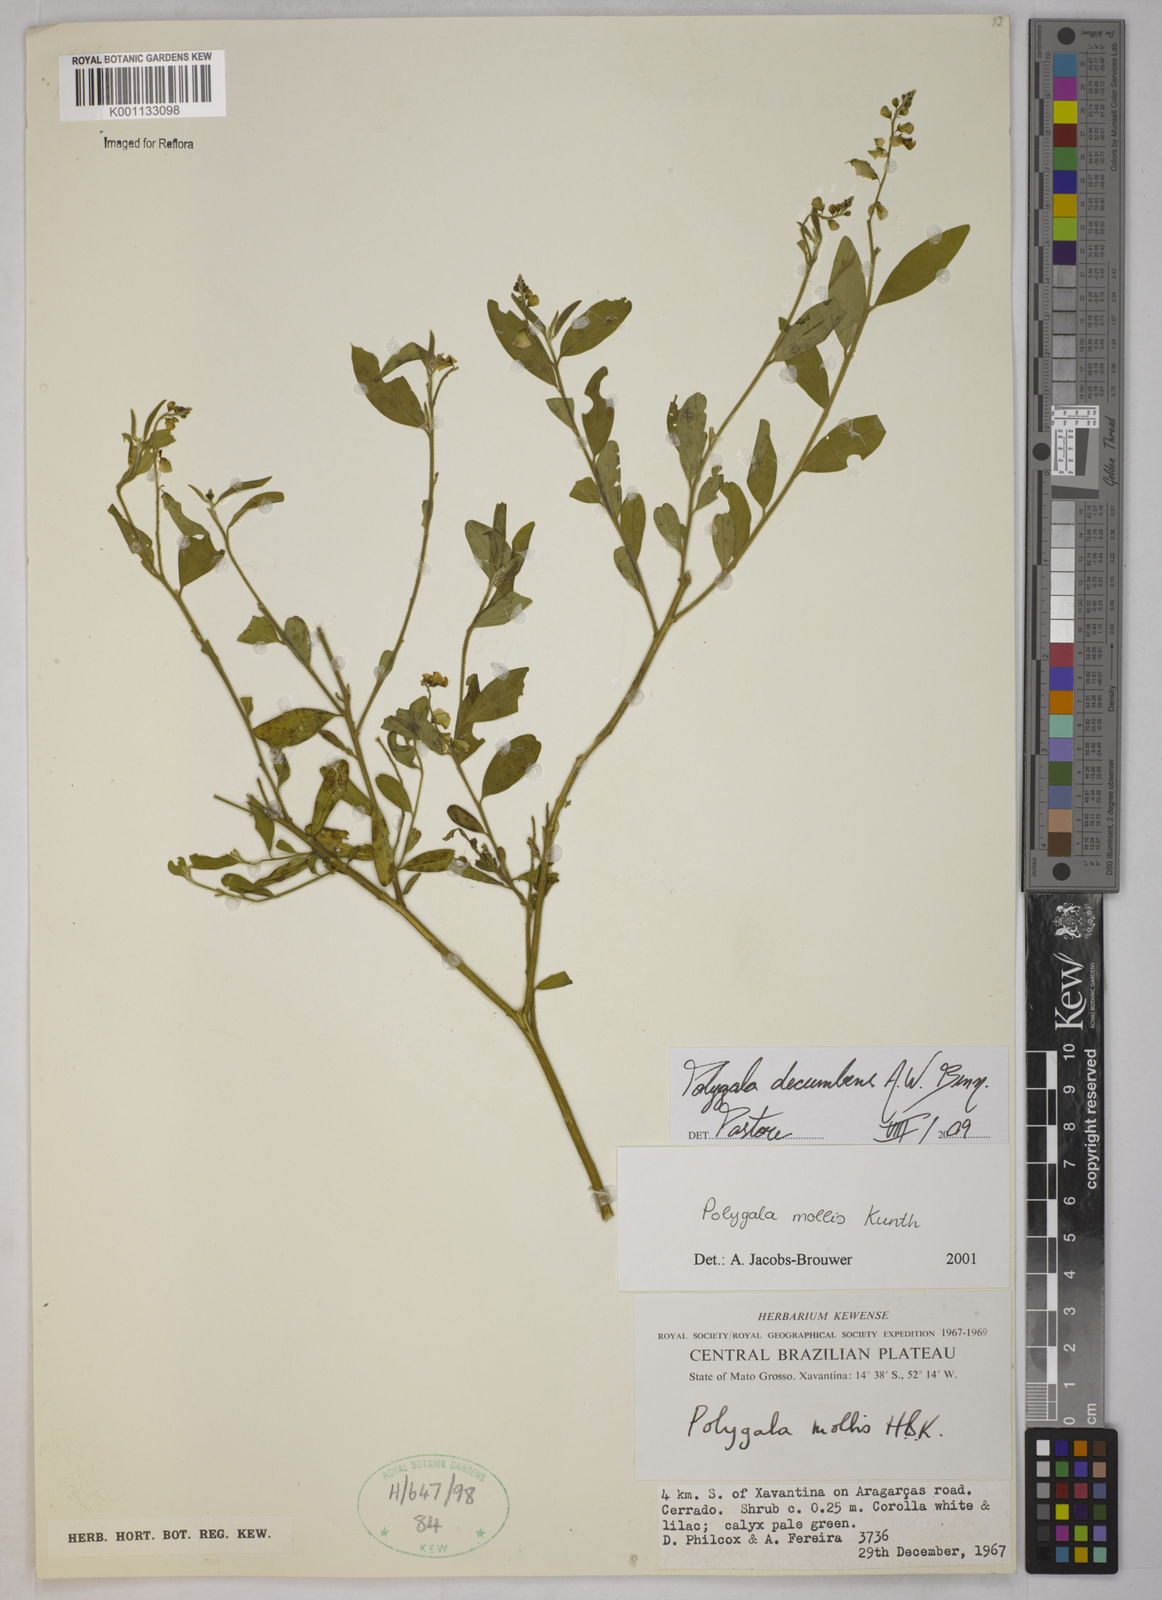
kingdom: Plantae
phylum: Tracheophyta
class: Magnoliopsida
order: Fabales
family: Polygalaceae
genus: Asemeia
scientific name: Asemeia ovata
